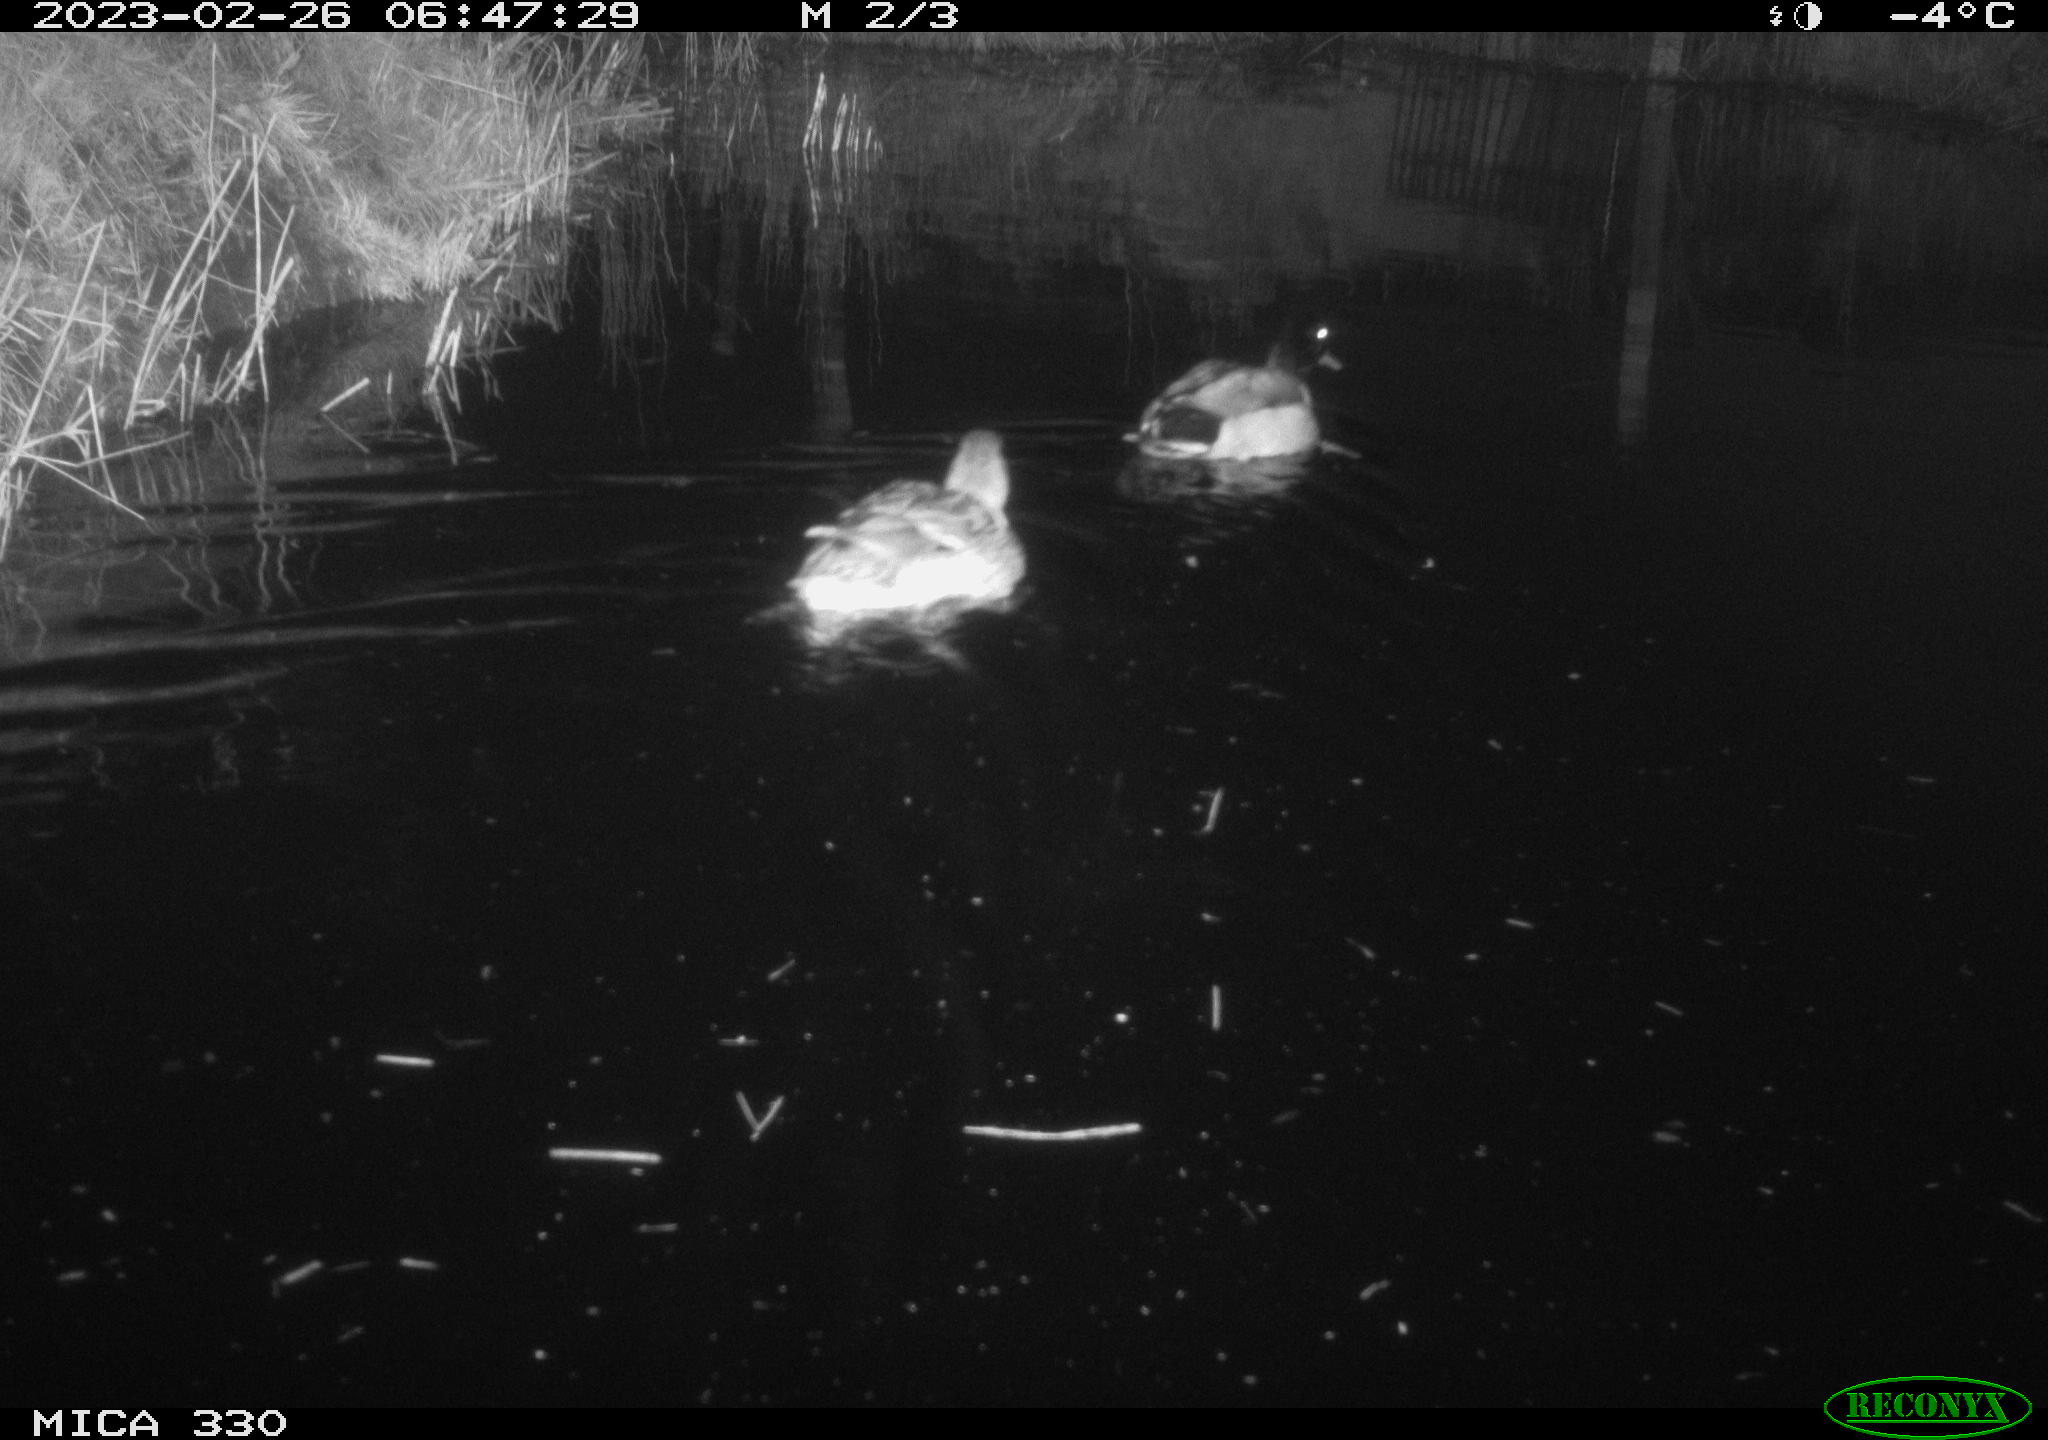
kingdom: Animalia
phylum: Chordata
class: Aves
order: Anseriformes
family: Anatidae
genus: Anas
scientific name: Anas
